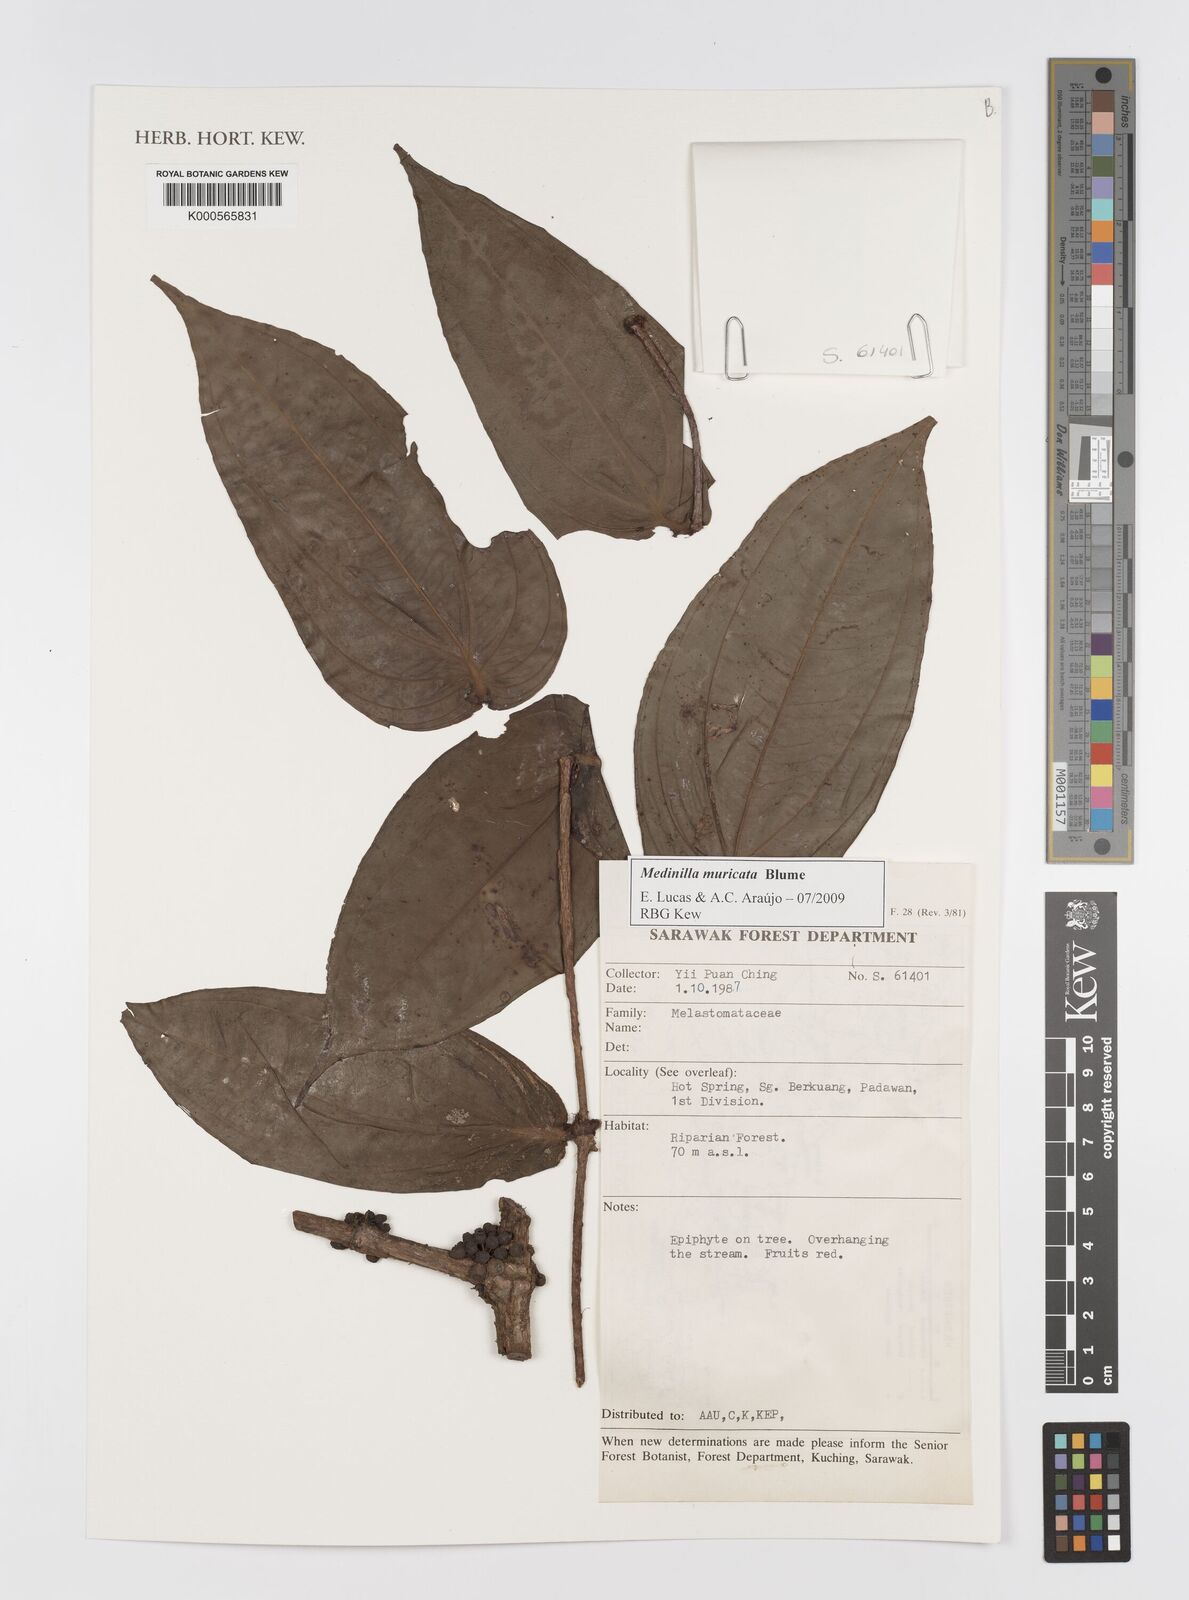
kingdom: Plantae
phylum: Tracheophyta
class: Magnoliopsida
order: Myrtales
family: Melastomataceae
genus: Medinilla
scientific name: Medinilla muricata
